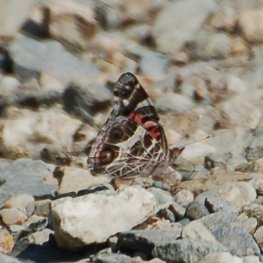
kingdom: Animalia
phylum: Arthropoda
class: Insecta
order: Lepidoptera
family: Nymphalidae
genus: Vanessa
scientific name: Vanessa virginiensis
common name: American Lady
